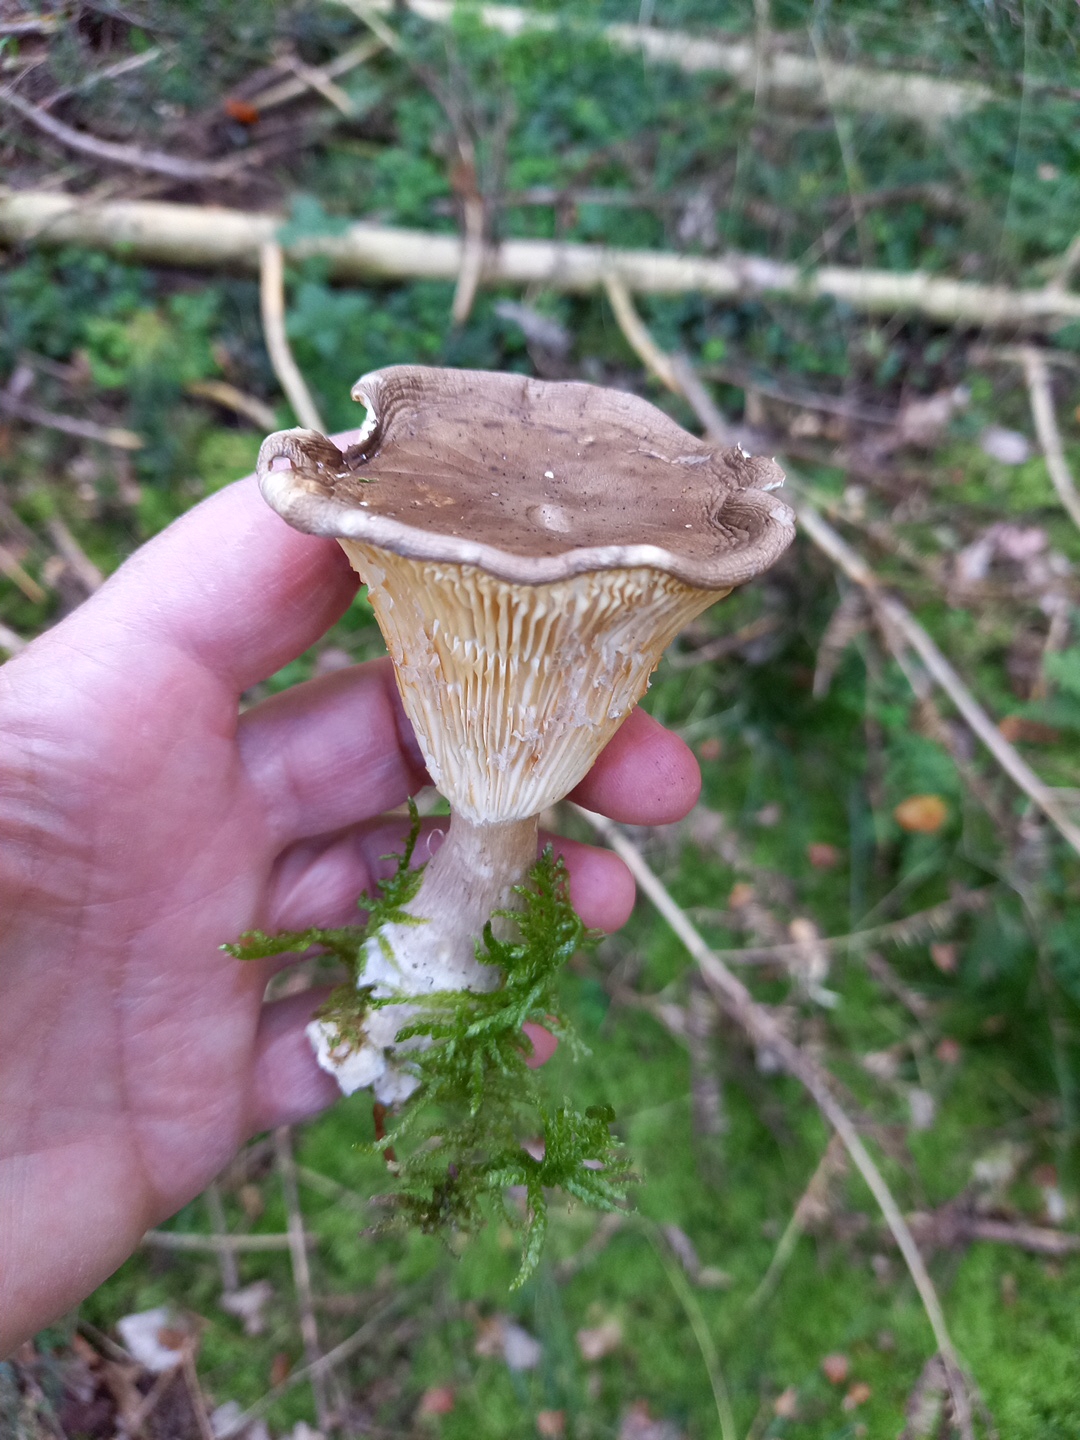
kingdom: Fungi
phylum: Basidiomycota
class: Agaricomycetes
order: Agaricales
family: Hygrophoraceae
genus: Ampulloclitocybe
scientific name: Ampulloclitocybe clavipes
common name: køllefod
